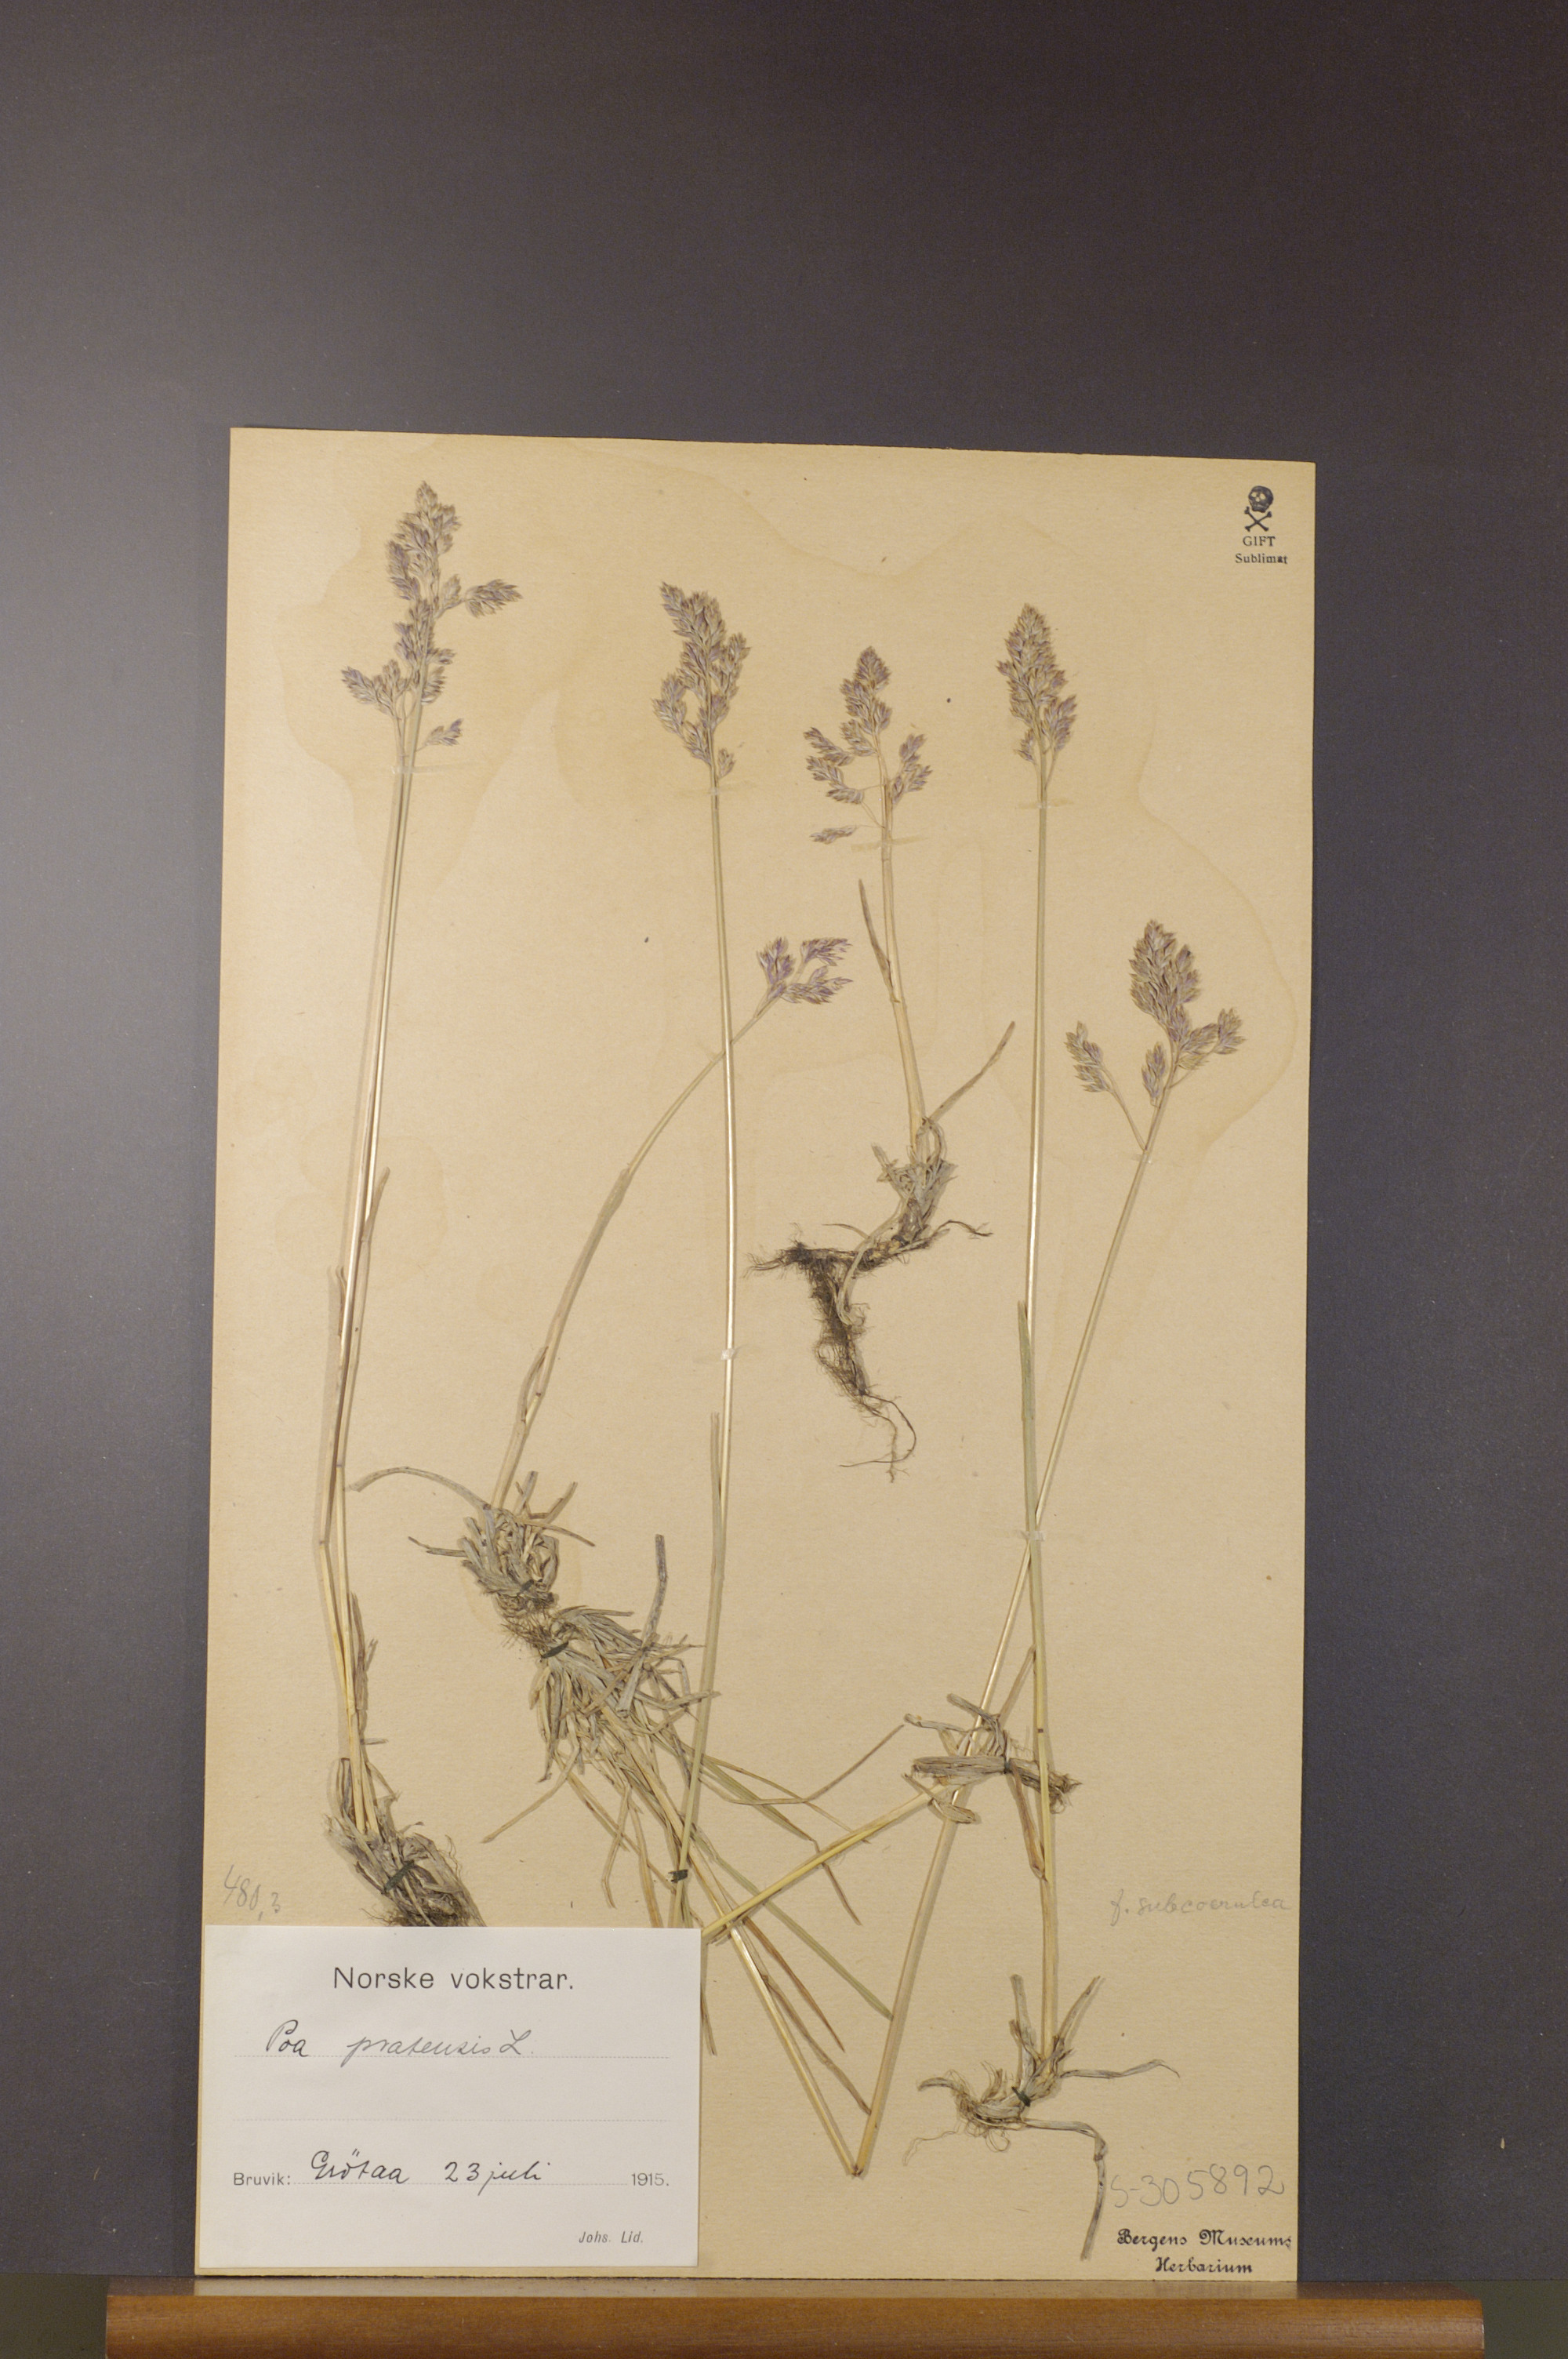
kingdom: Plantae
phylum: Tracheophyta
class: Liliopsida
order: Poales
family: Poaceae
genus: Poa
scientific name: Poa pratensis
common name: Kentucky bluegrass
